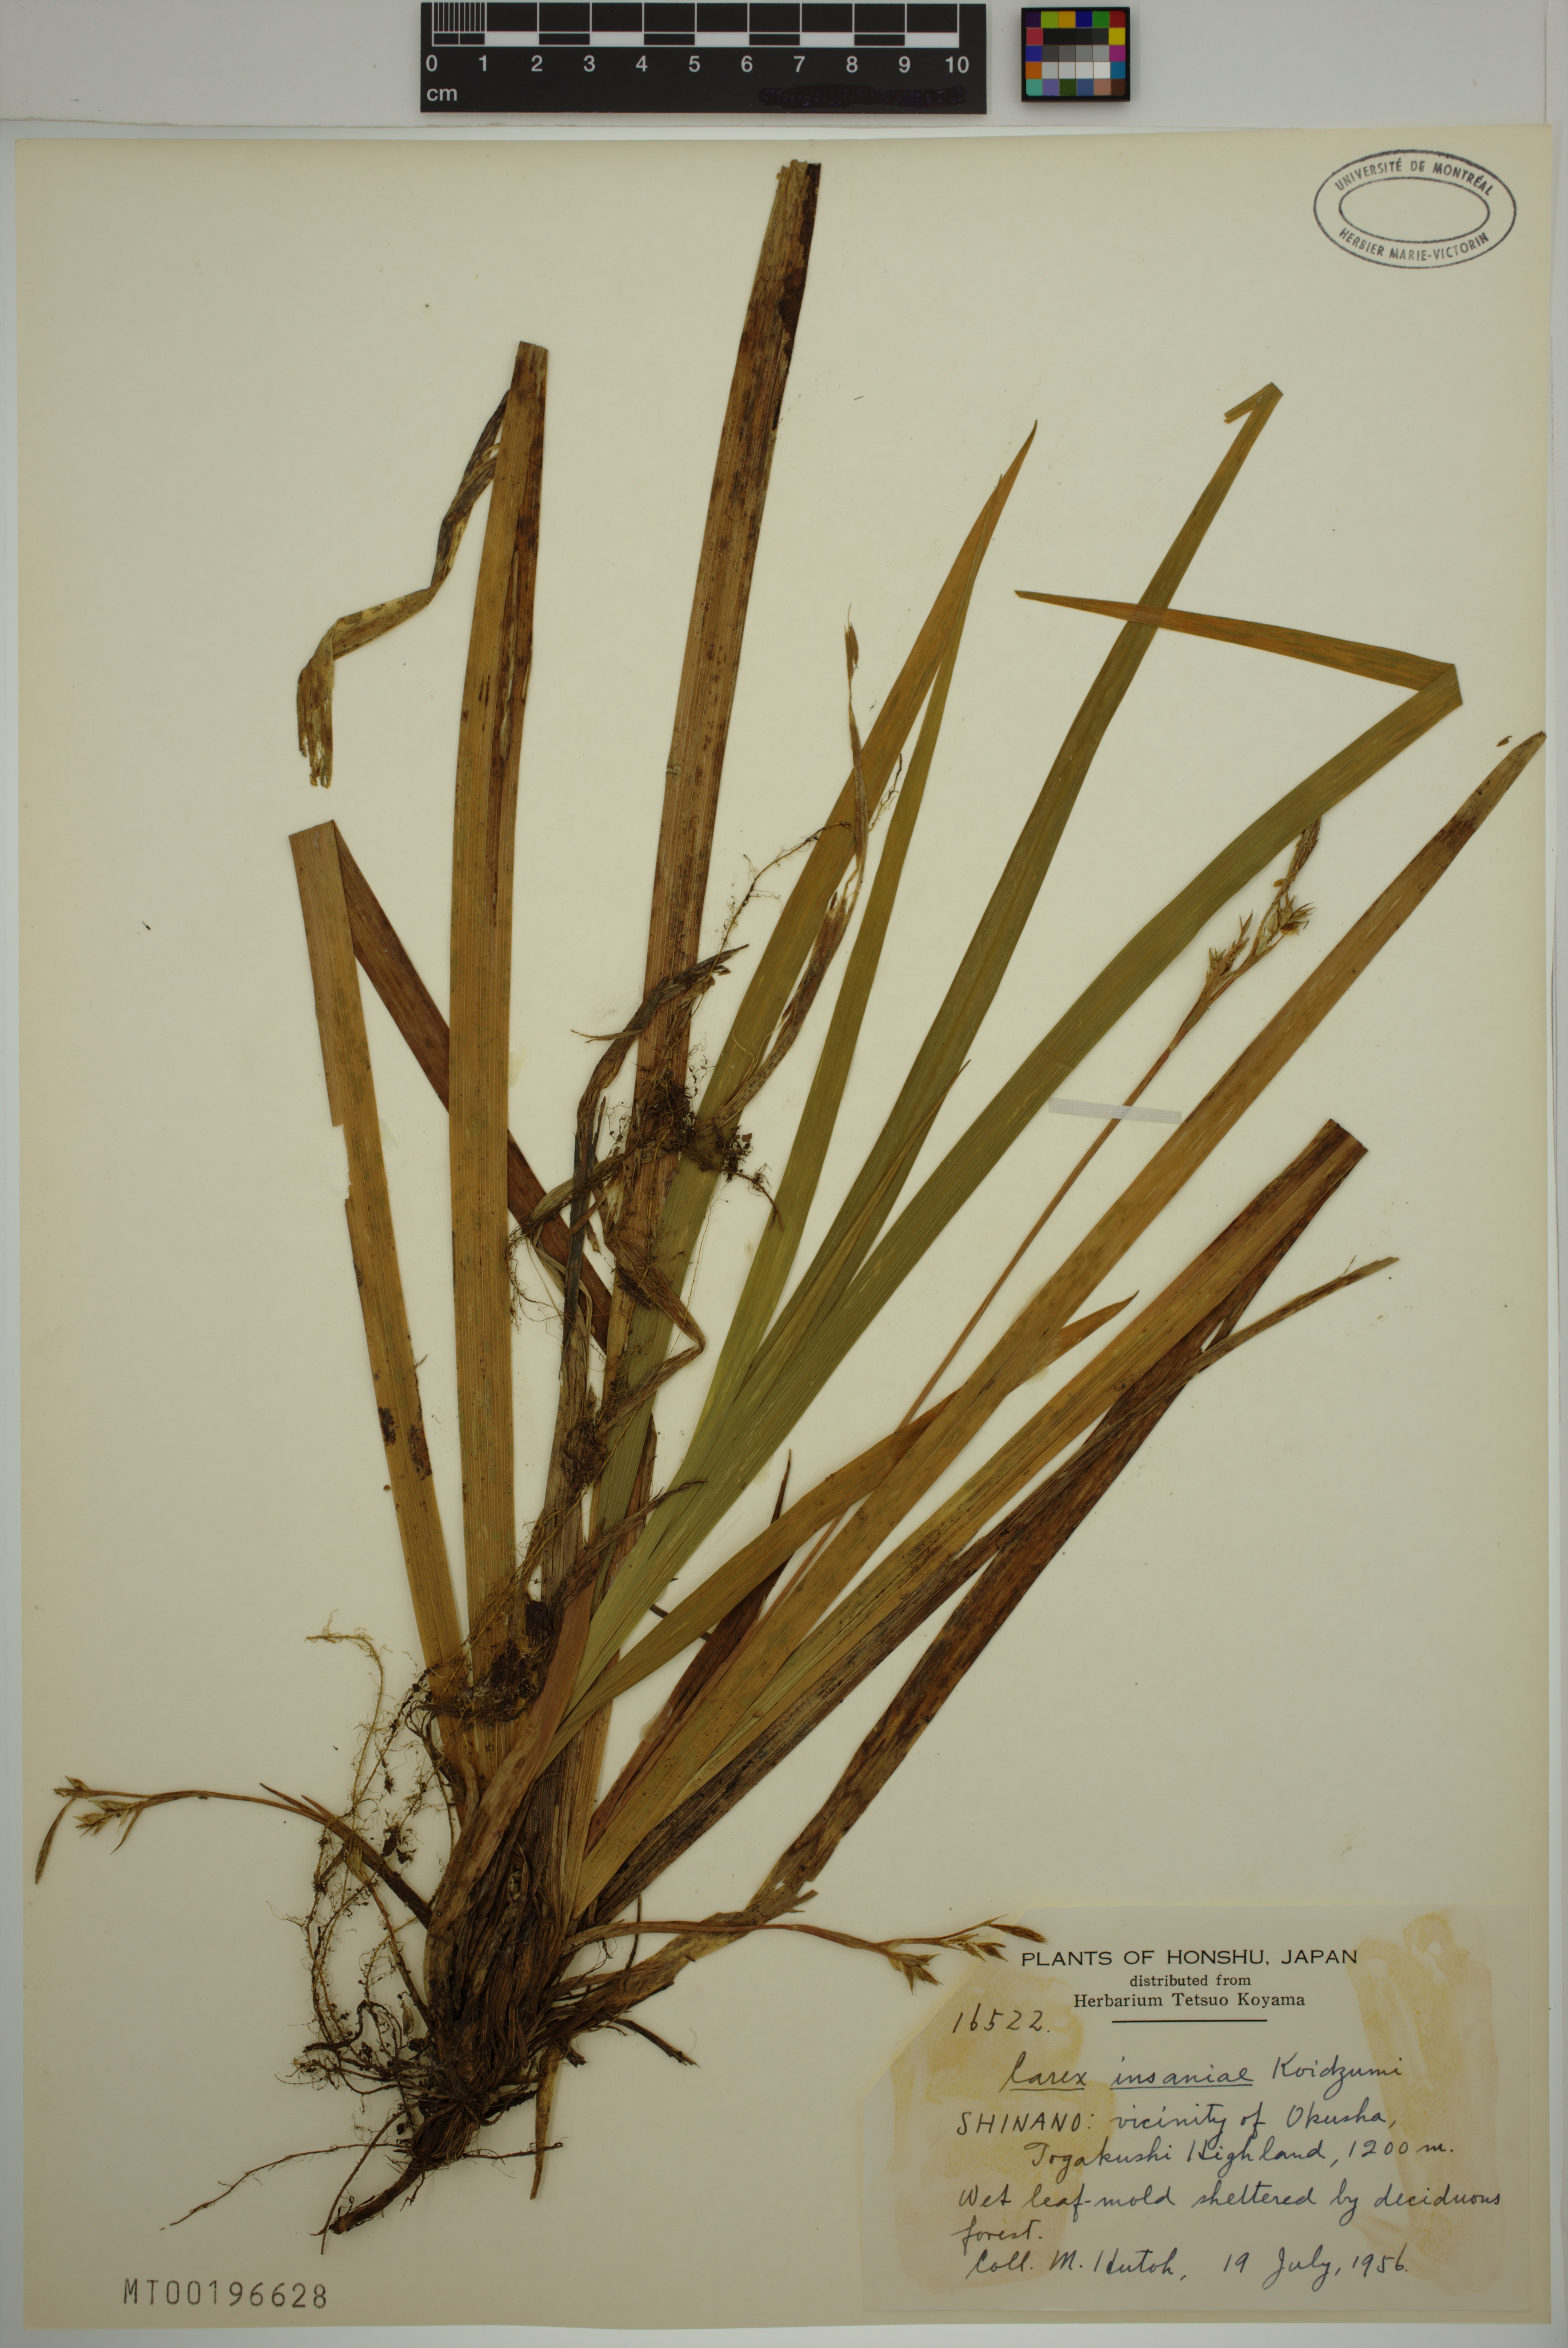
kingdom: Plantae
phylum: Tracheophyta
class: Liliopsida
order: Poales
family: Cyperaceae
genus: Carex
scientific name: Carex insaniae
